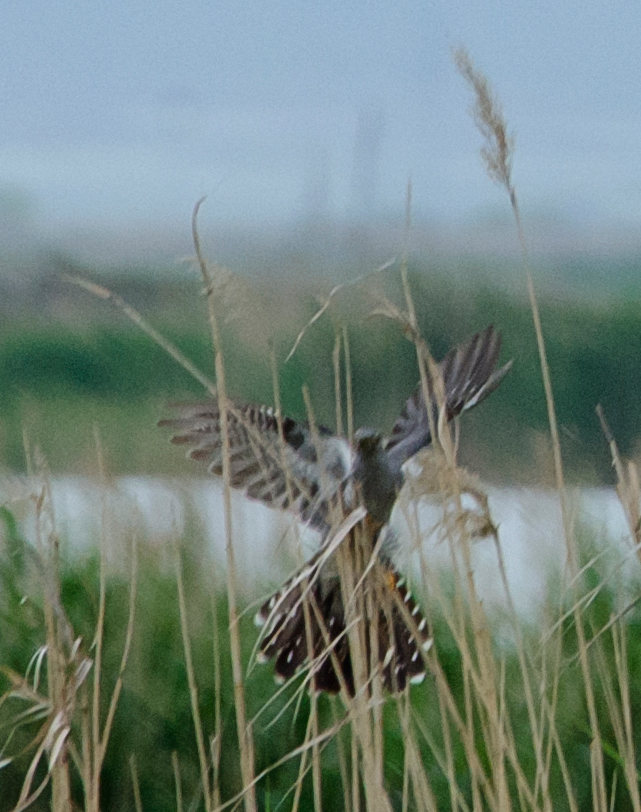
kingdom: Animalia
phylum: Chordata
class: Aves
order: Cuculiformes
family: Cuculidae
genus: Cuculus
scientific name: Cuculus canorus
